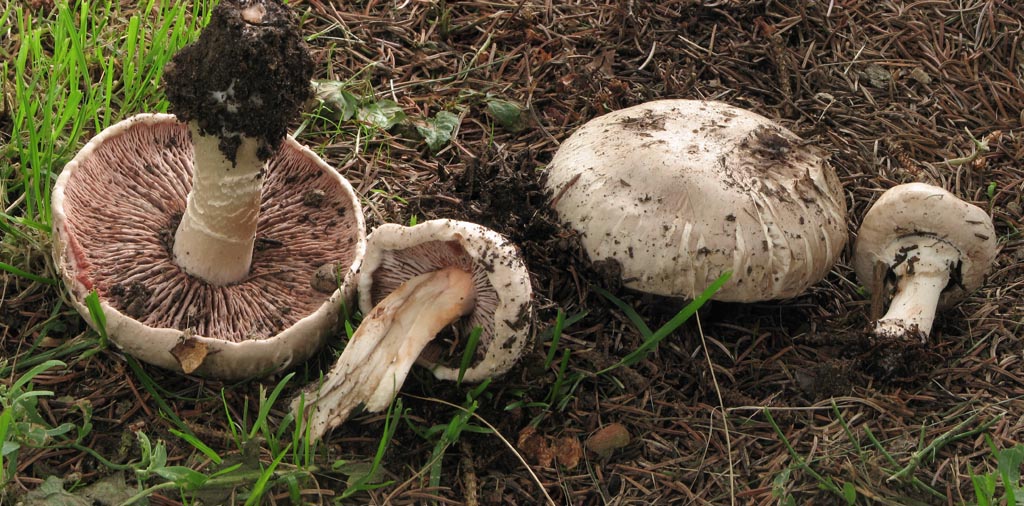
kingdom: Fungi
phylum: Basidiomycota
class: Agaricomycetes
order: Agaricales
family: Agaricaceae
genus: Agaricus
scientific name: Agaricus subfloccosus
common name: randskællet champignon
